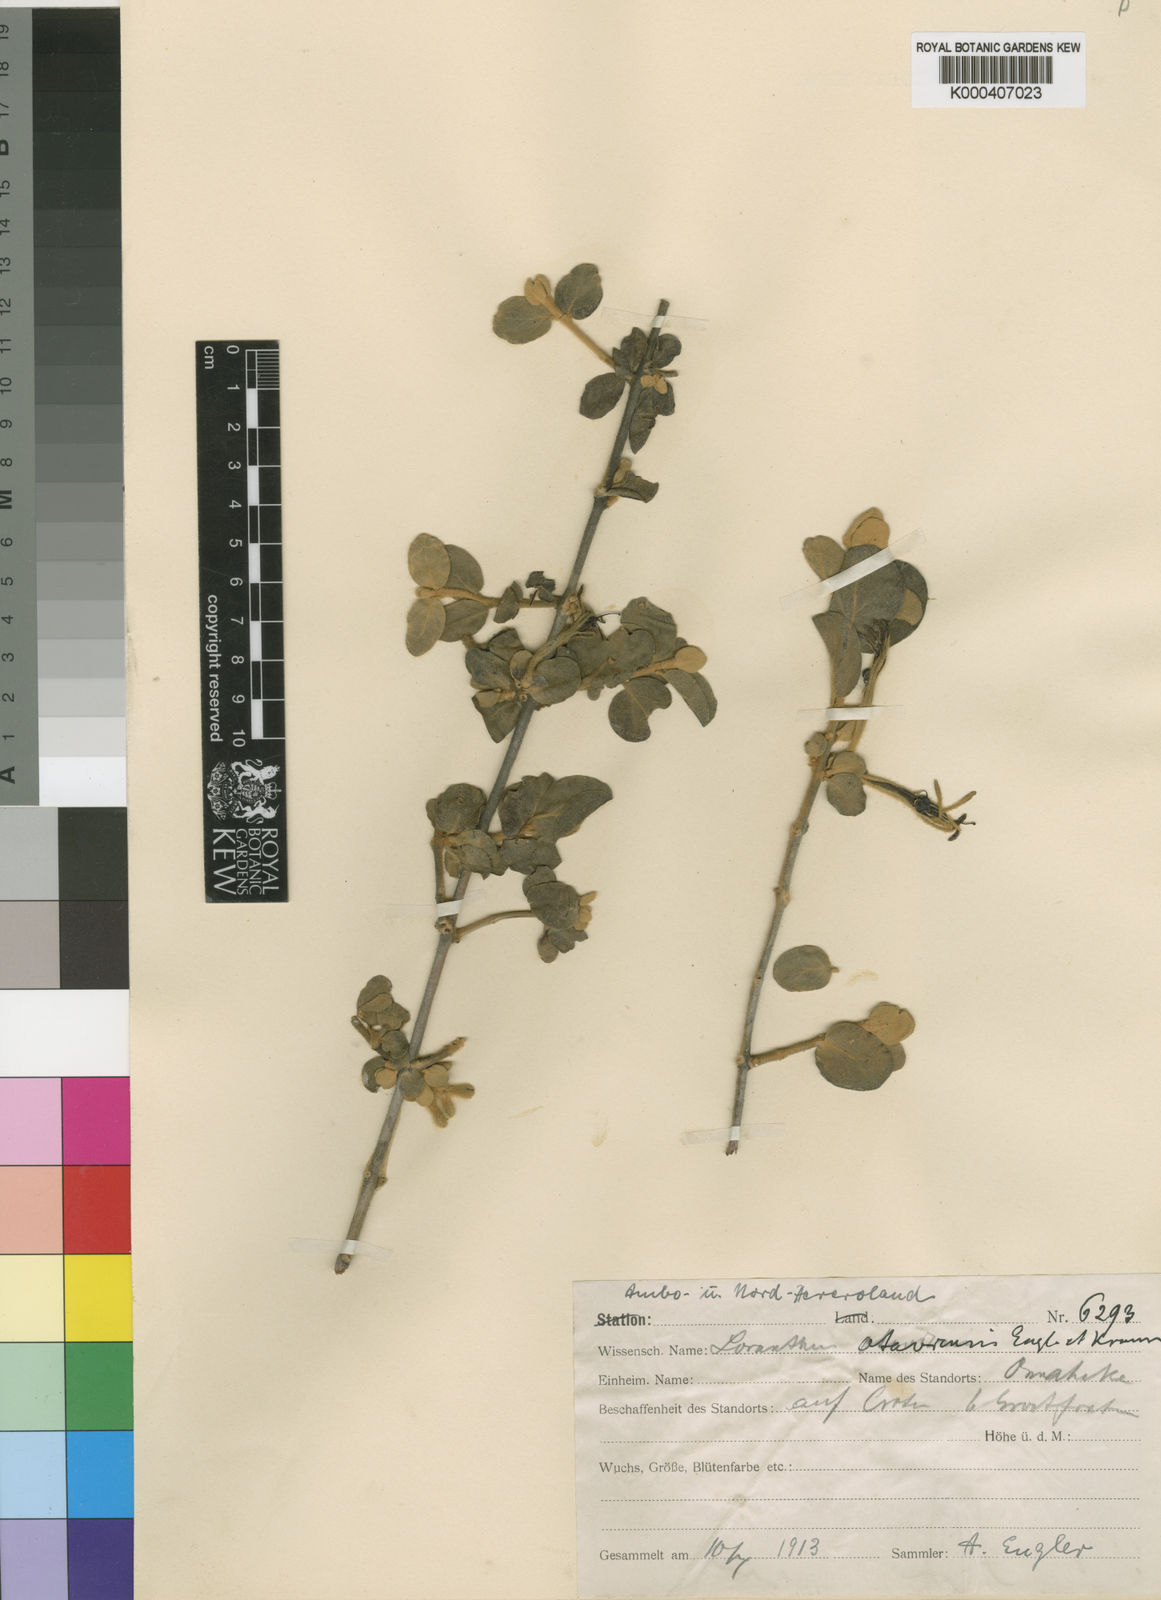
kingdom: Plantae
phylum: Tracheophyta
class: Magnoliopsida
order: Santalales
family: Loranthaceae
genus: Phragmanthera
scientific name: Phragmanthera glaucocarpa
